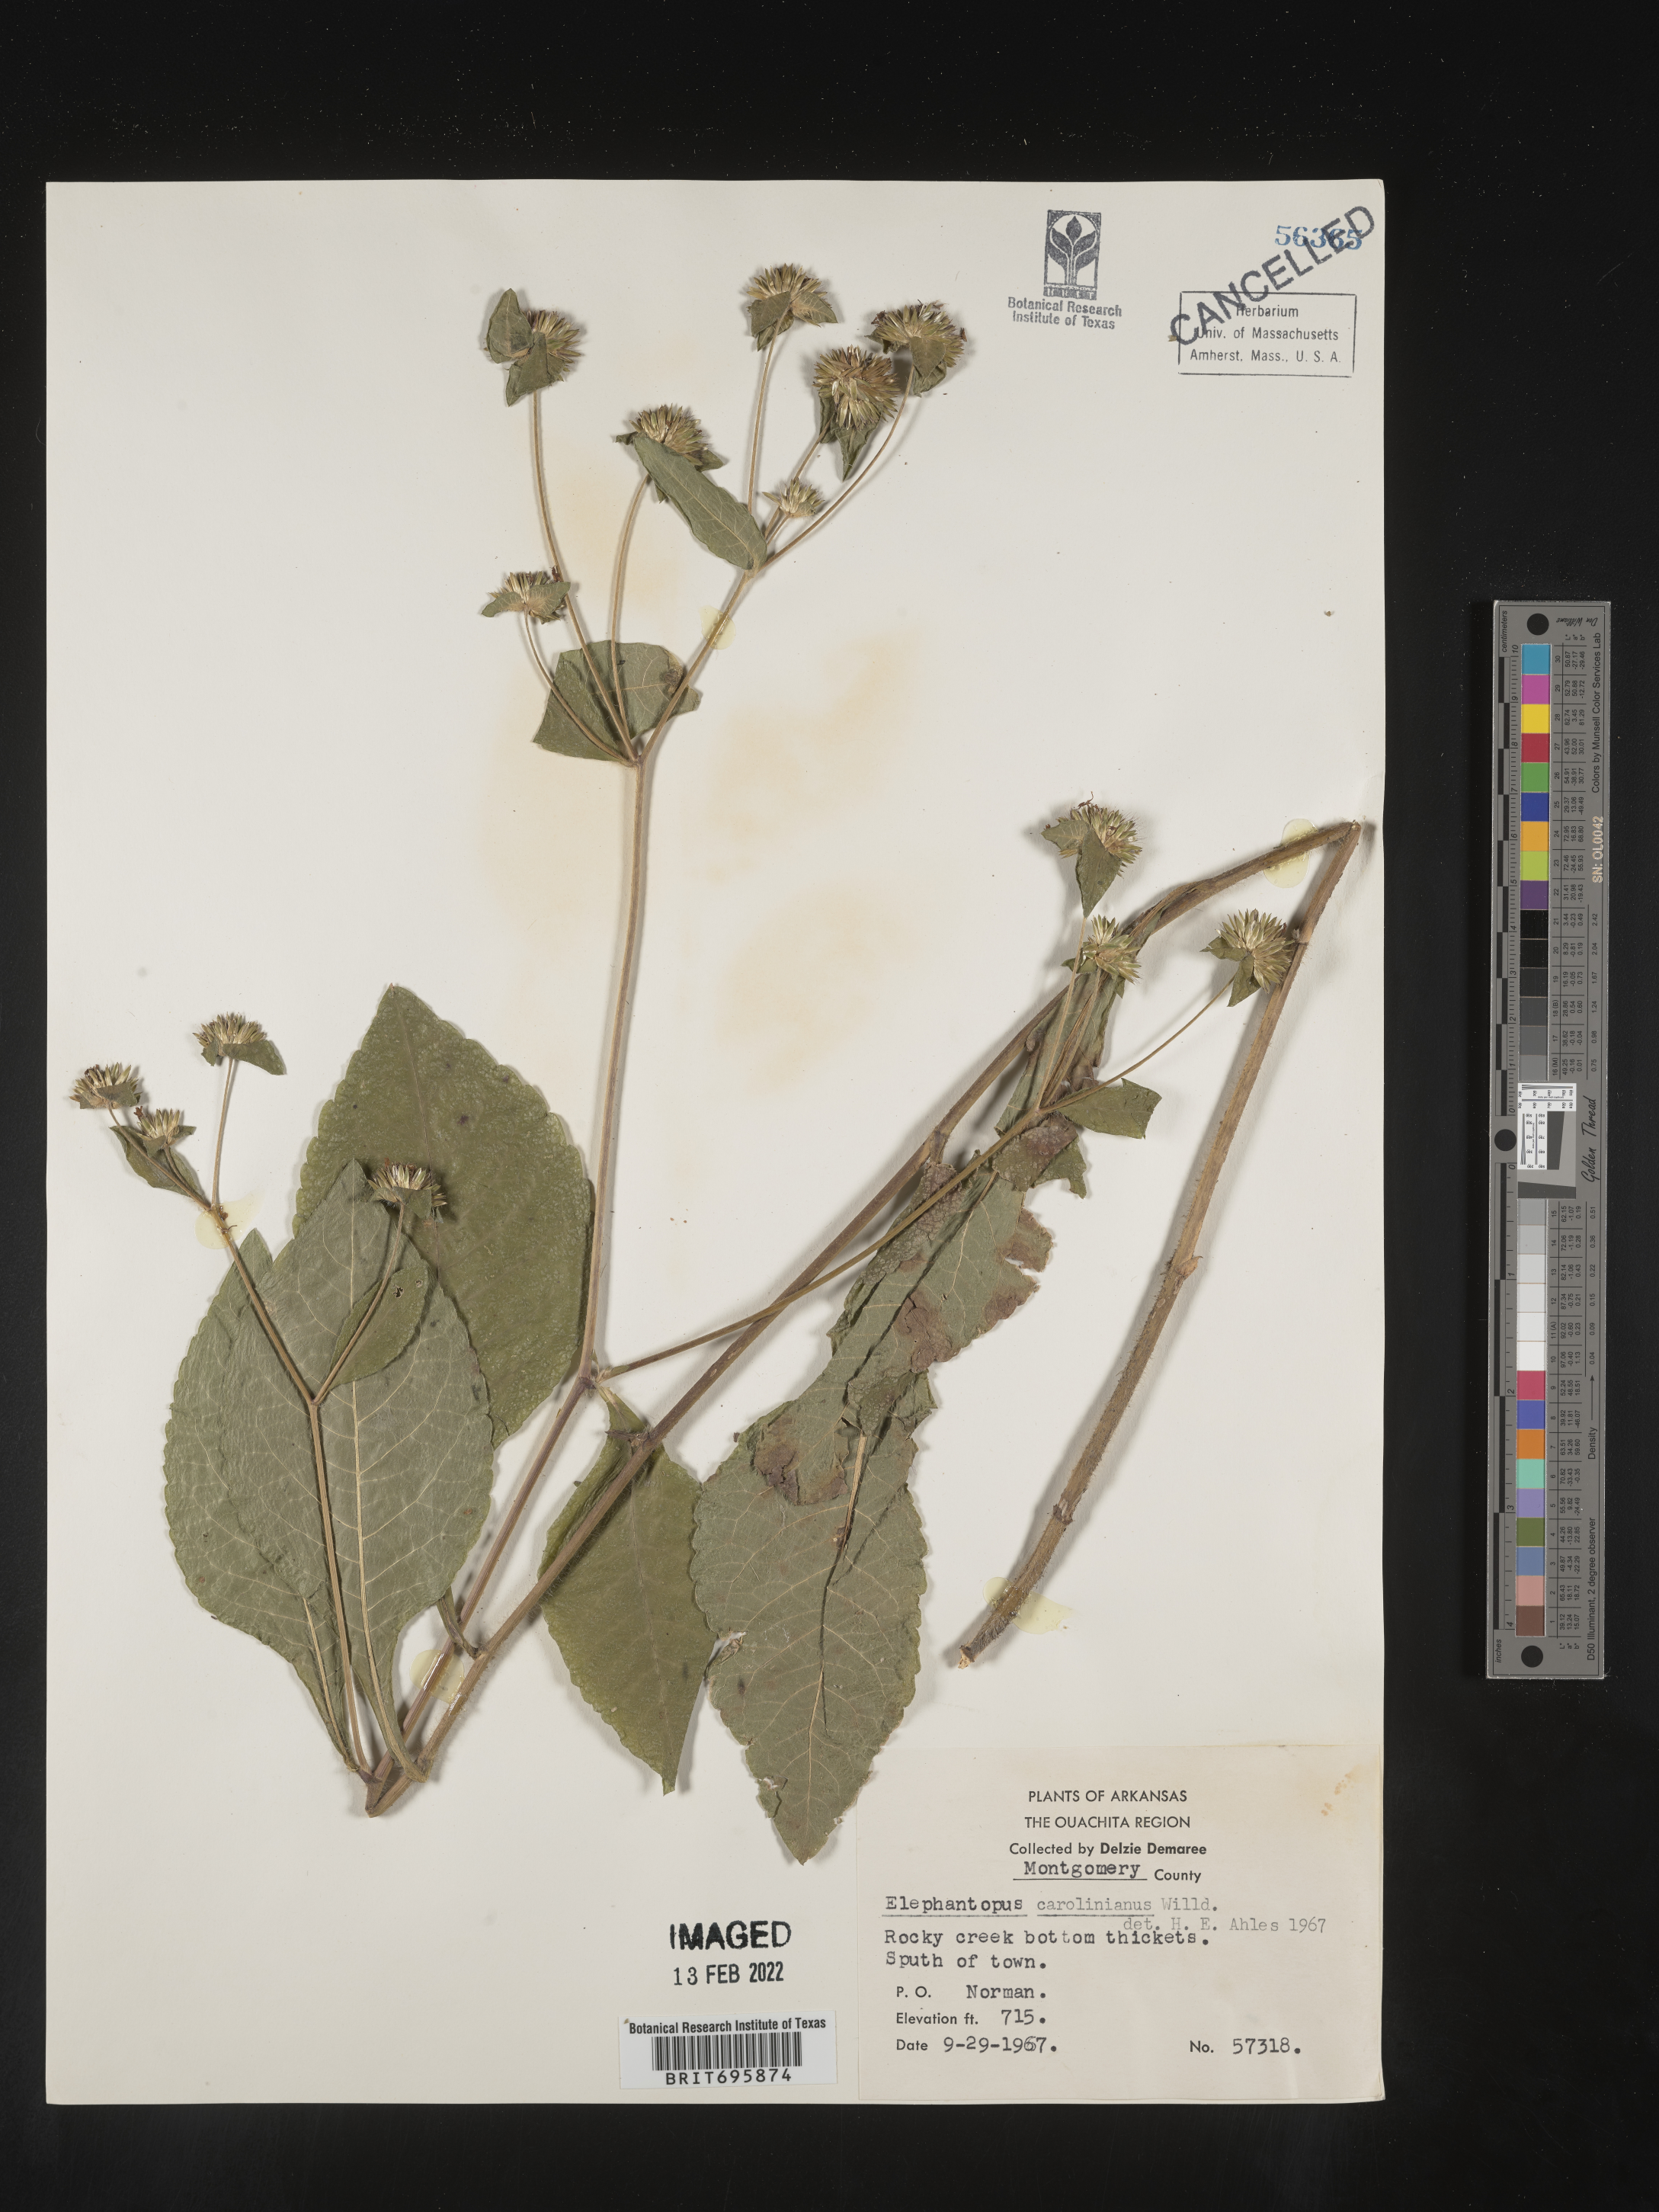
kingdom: Plantae
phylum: Tracheophyta
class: Magnoliopsida
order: Asterales
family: Asteraceae
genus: Elephantopus
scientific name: Elephantopus carolinianus
